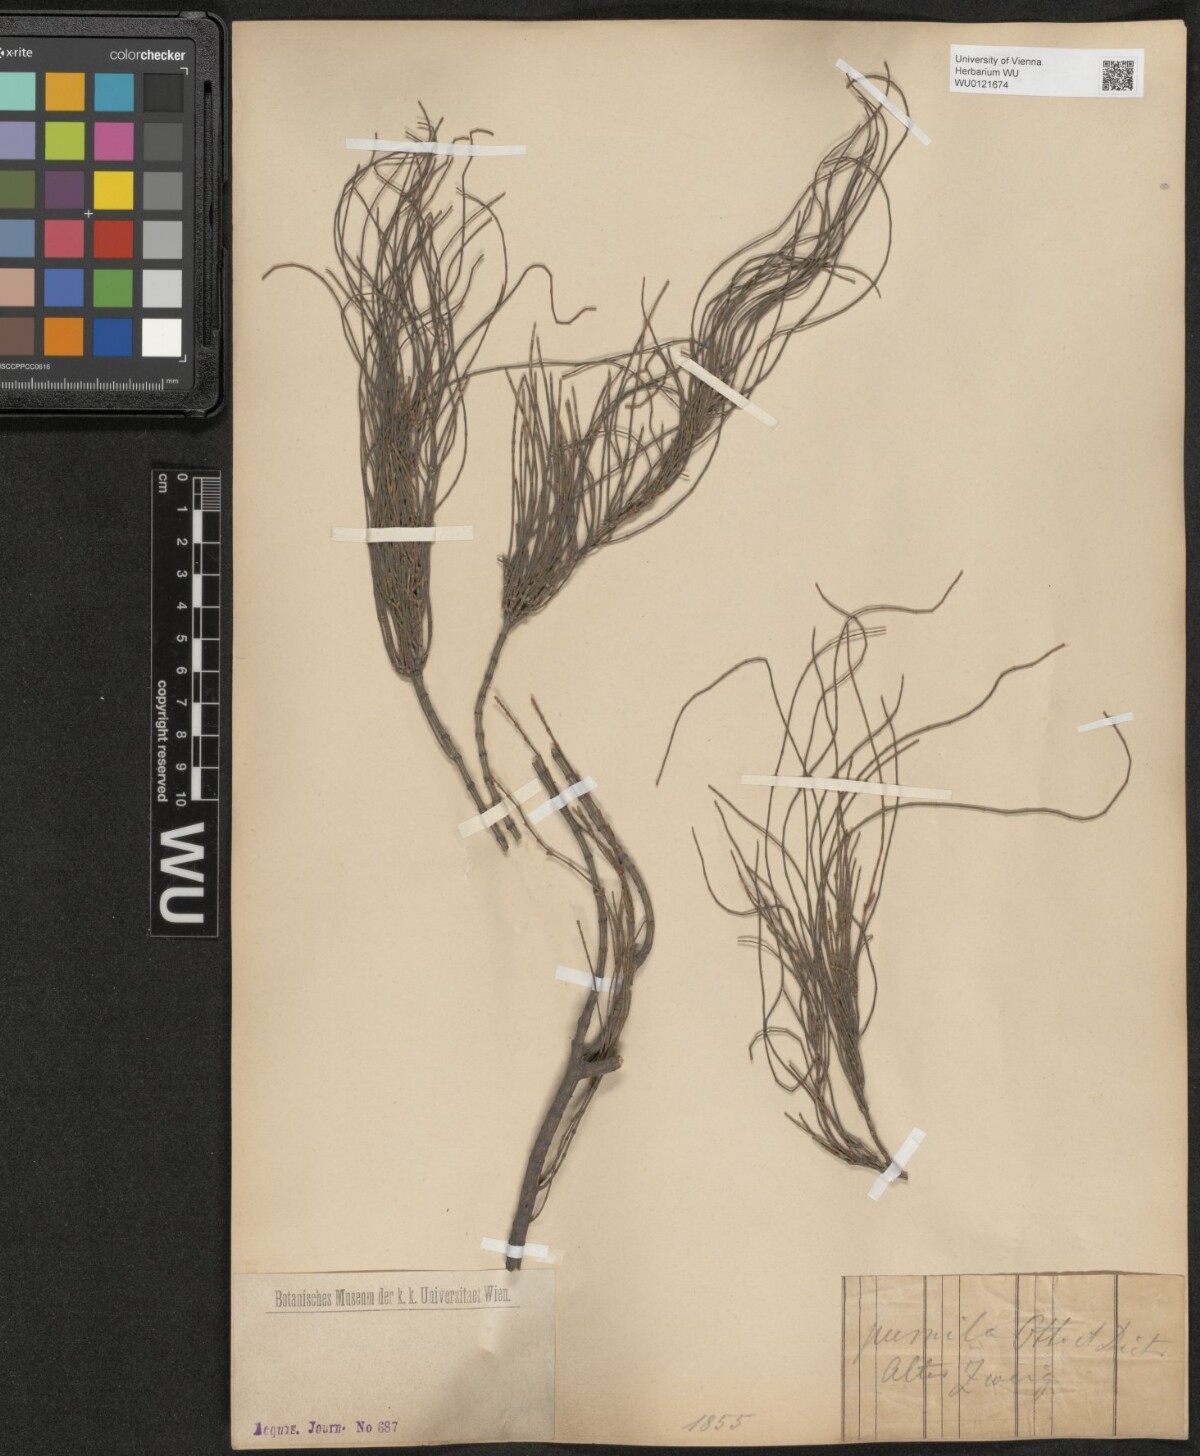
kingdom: Plantae
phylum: Tracheophyta
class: Magnoliopsida
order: Fagales
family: Casuarinaceae
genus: Allocasuarina
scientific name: Allocasuarina paludosa
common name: Scrub she-oak
